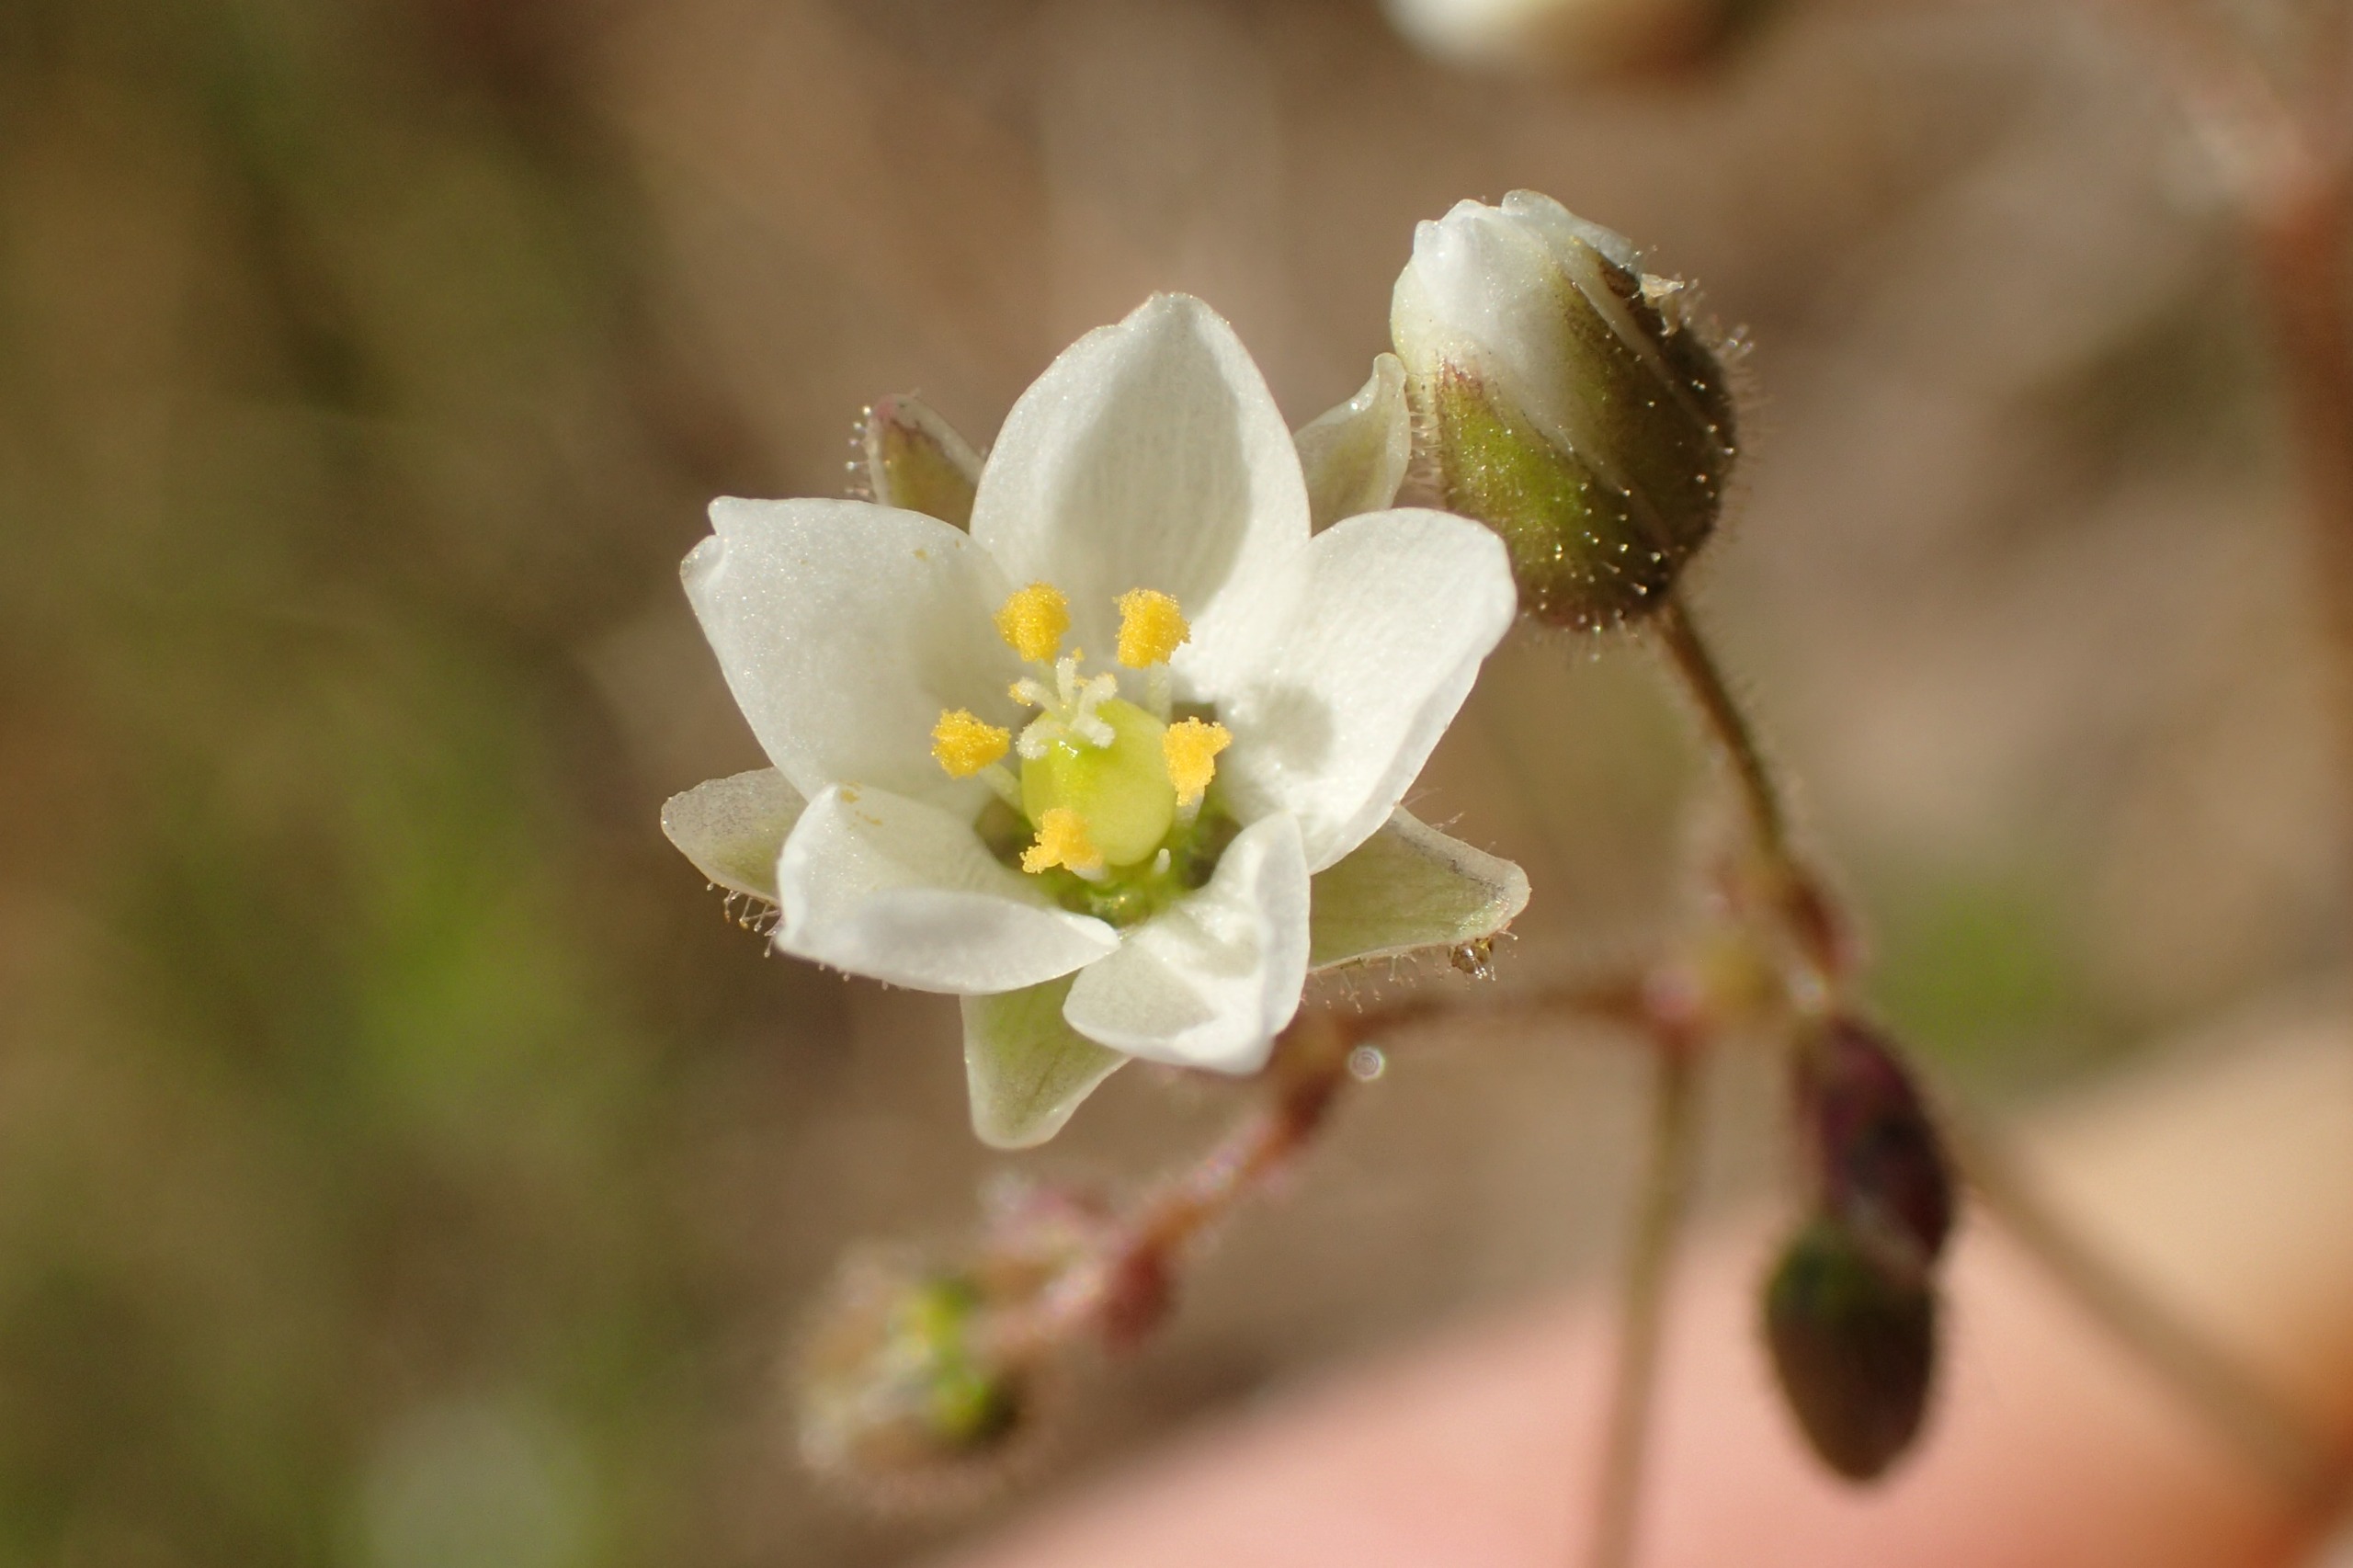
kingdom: Plantae
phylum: Tracheophyta
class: Magnoliopsida
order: Caryophyllales
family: Caryophyllaceae
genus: Spergula
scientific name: Spergula arvensis
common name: Foder-spergel
